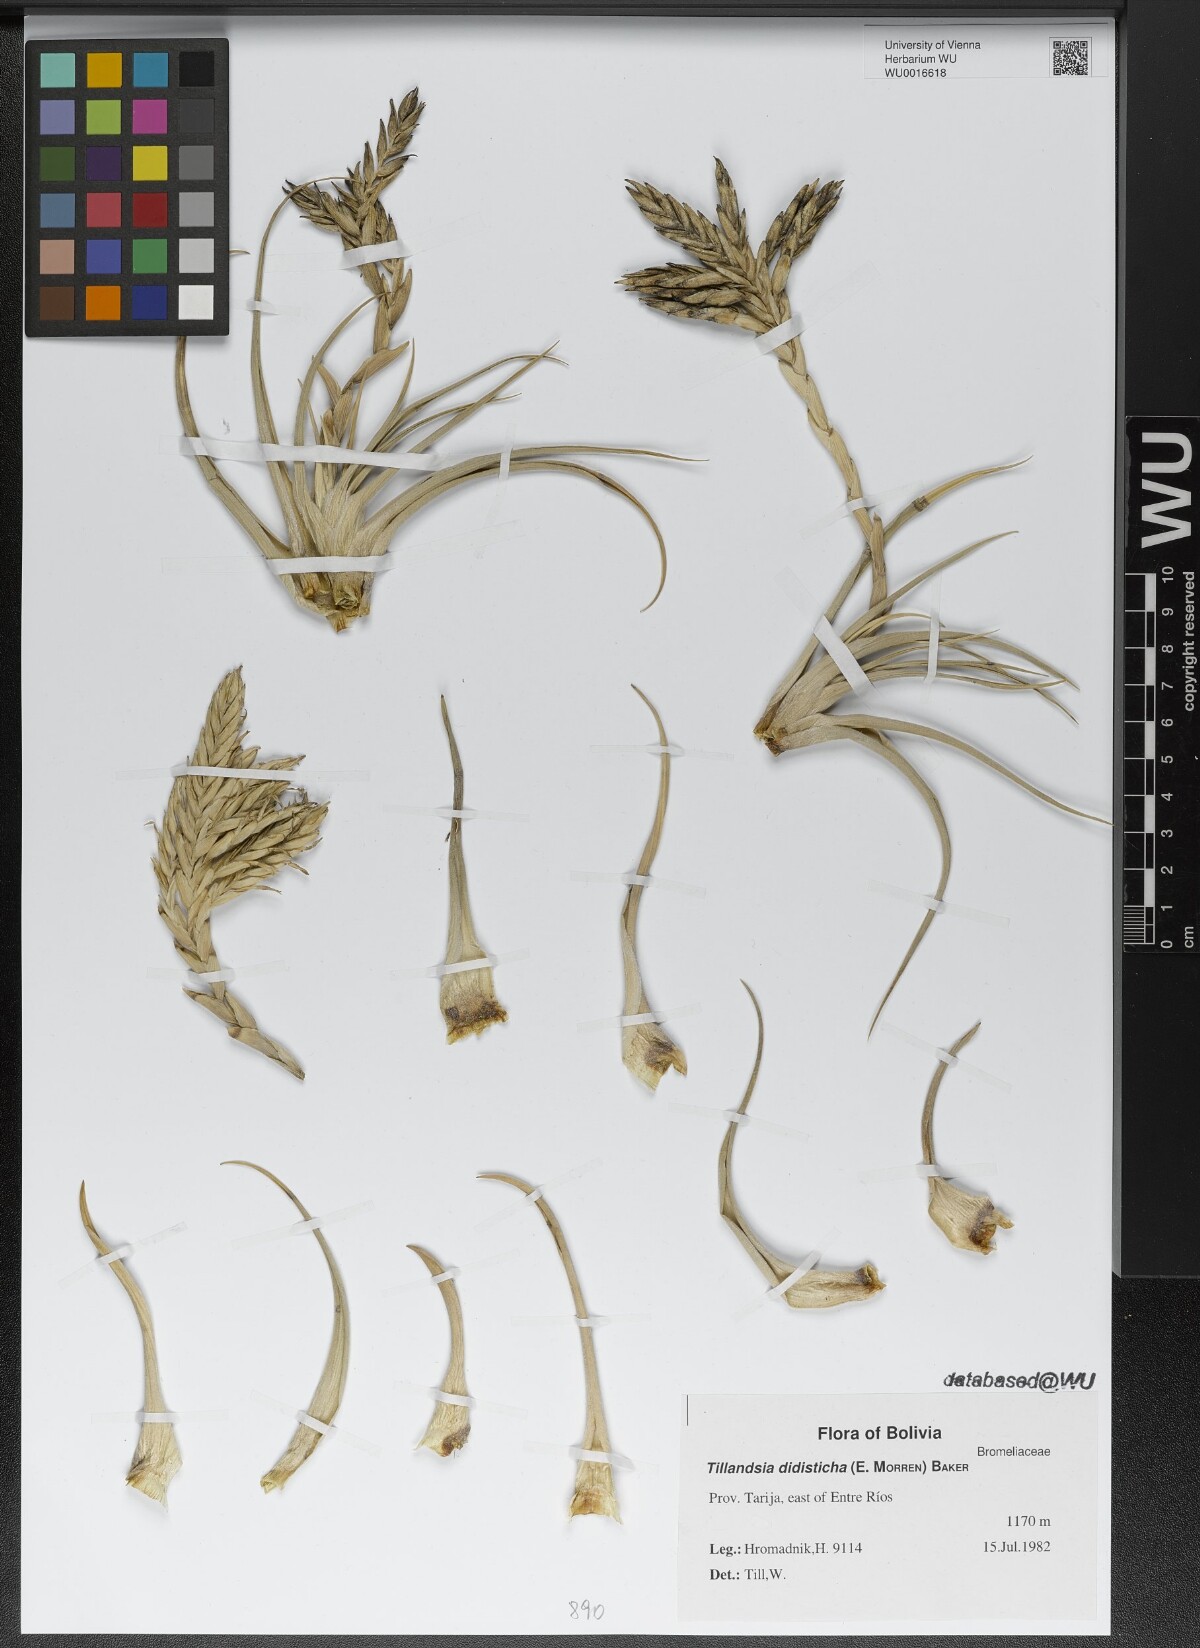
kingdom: Plantae
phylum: Tracheophyta
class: Liliopsida
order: Poales
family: Bromeliaceae
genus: Tillandsia
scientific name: Tillandsia didisticha
